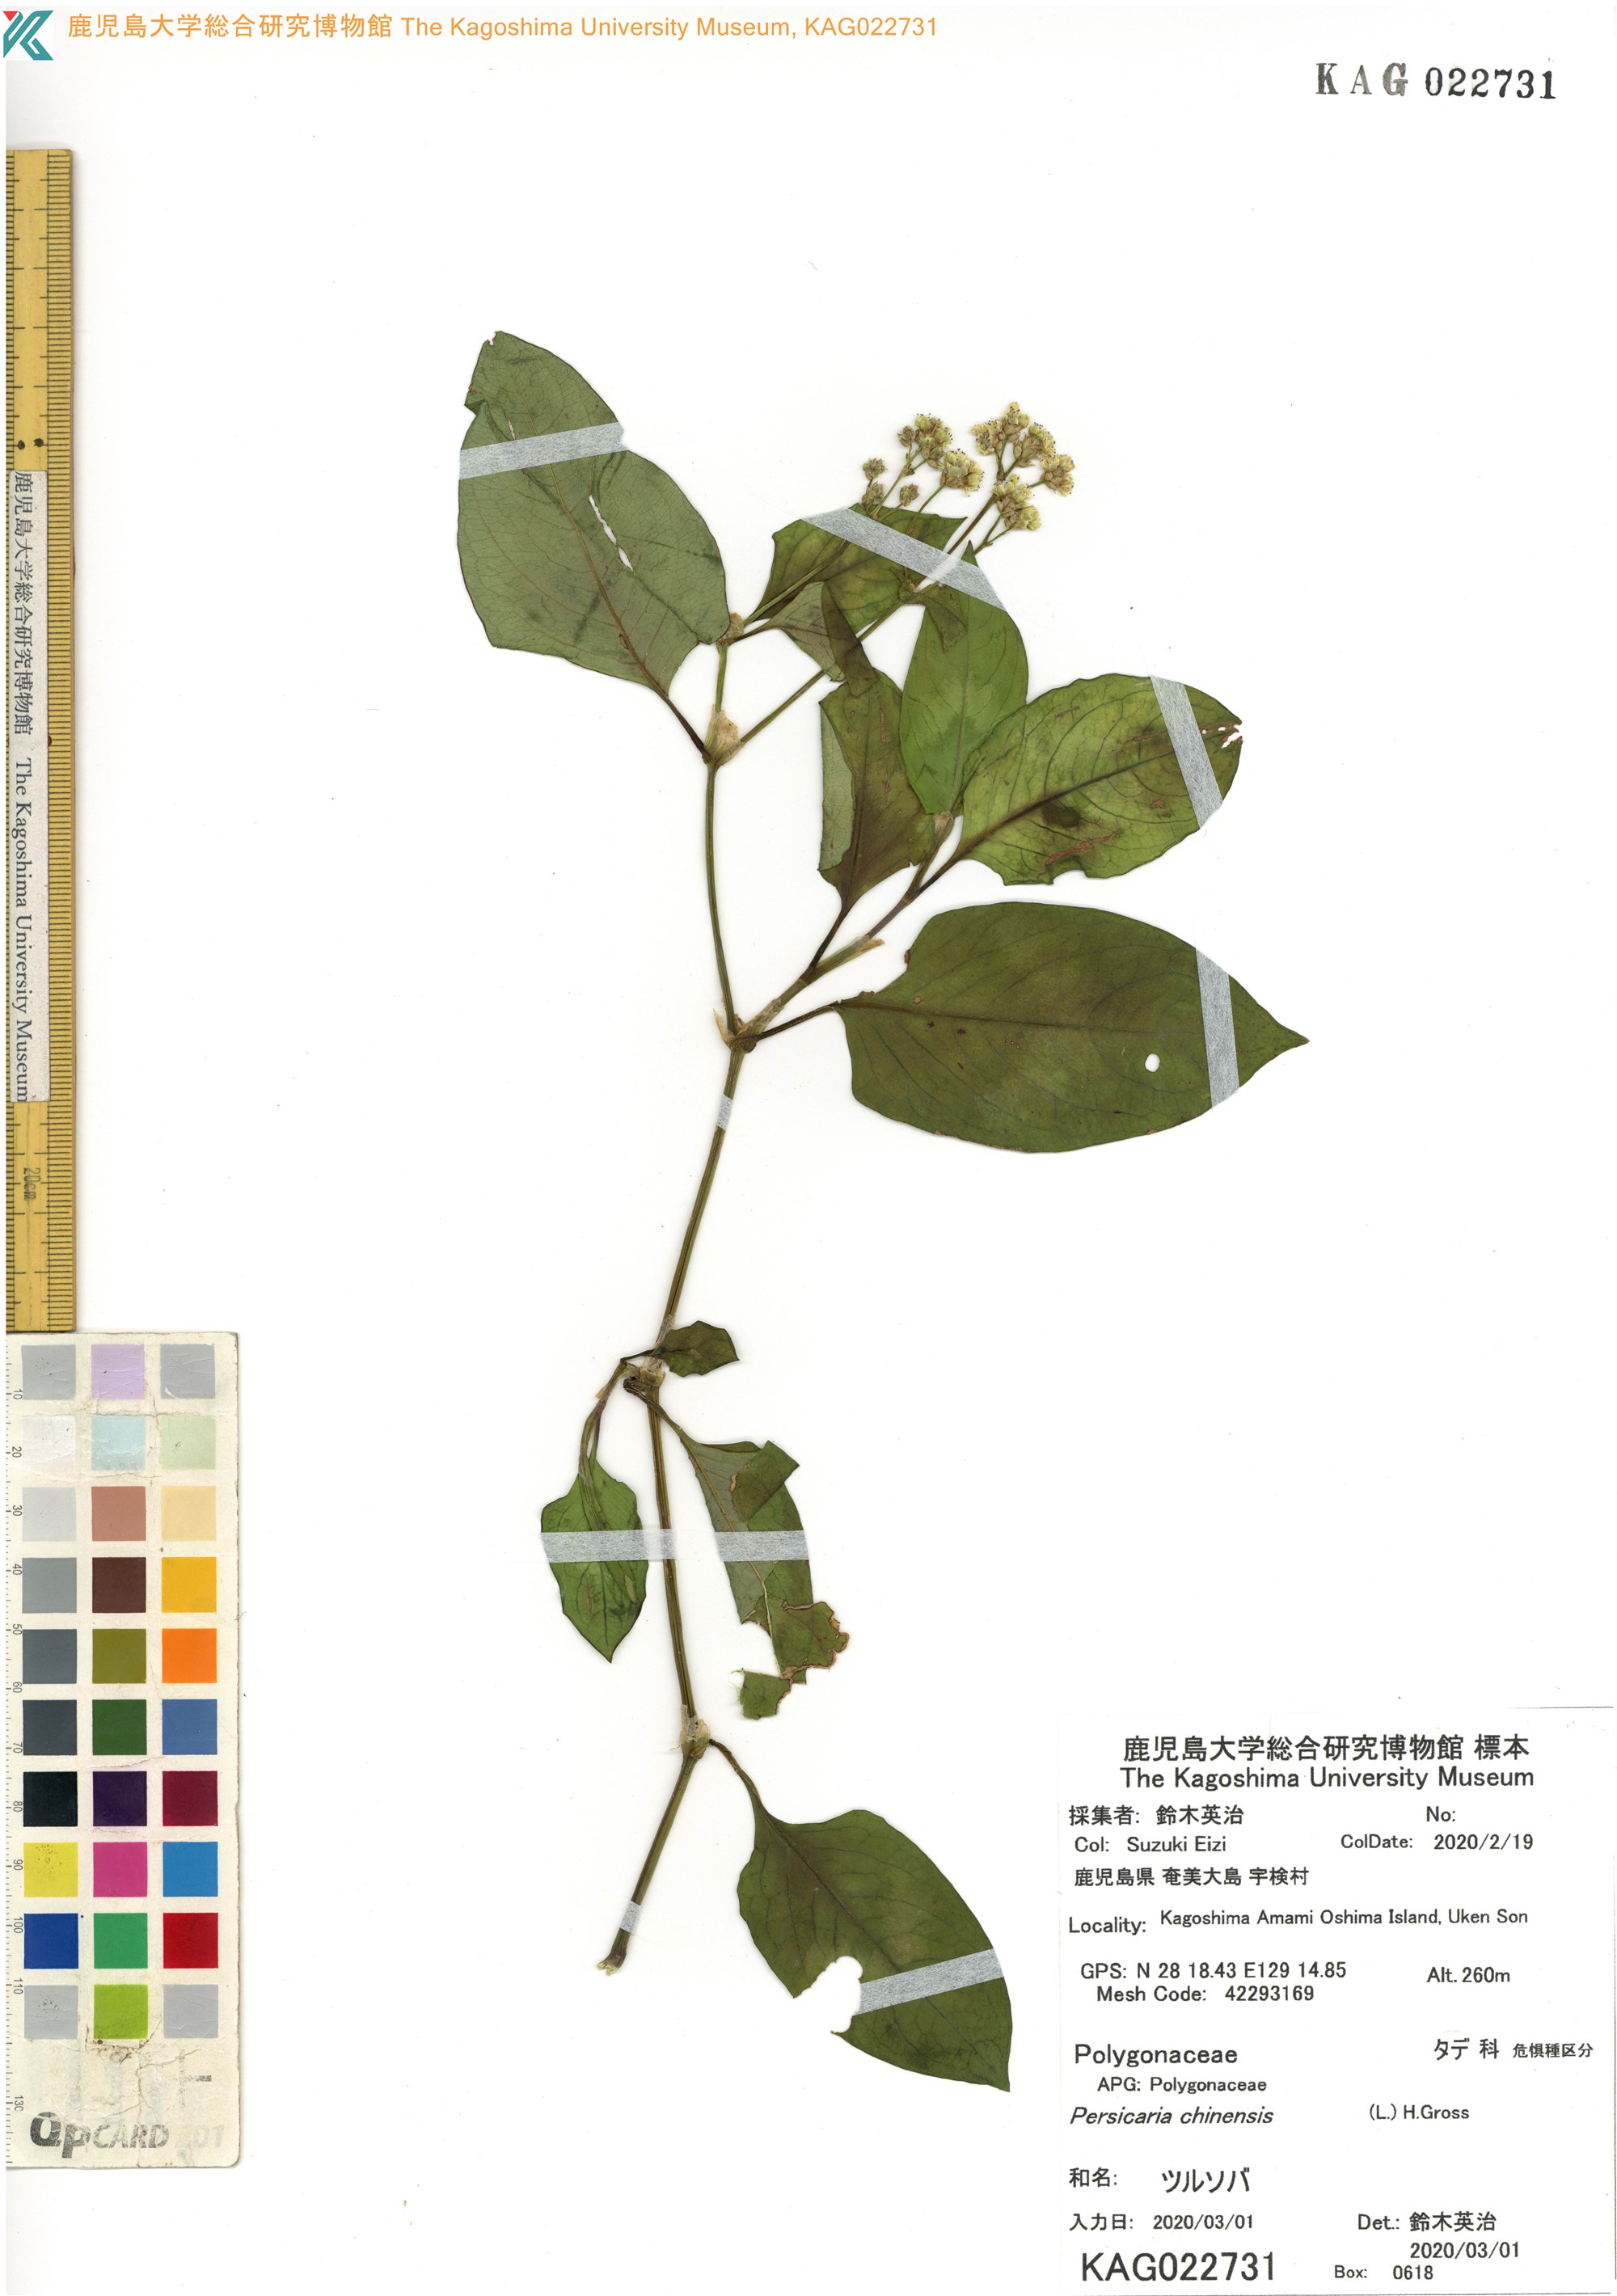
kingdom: Plantae
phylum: Tracheophyta
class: Magnoliopsida
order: Caryophyllales
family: Polygonaceae
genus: Persicaria
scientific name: Persicaria chinensis
